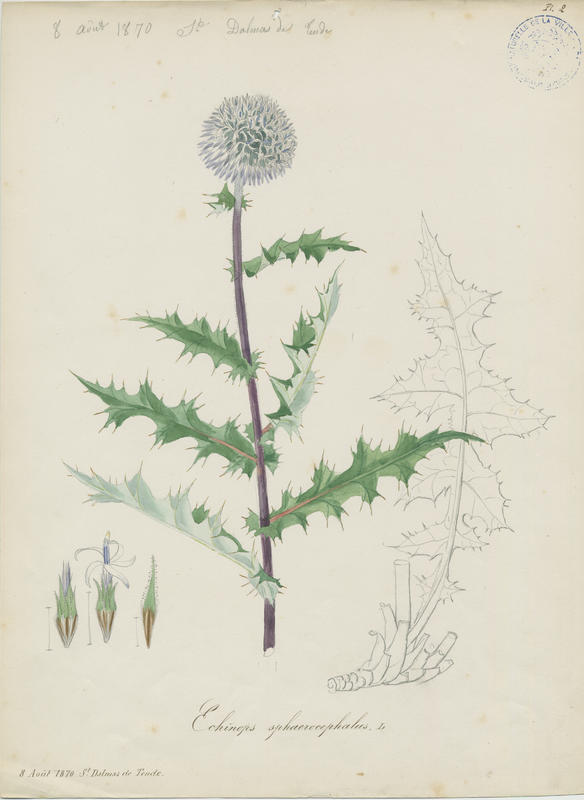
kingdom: Plantae
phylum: Tracheophyta
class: Magnoliopsida
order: Asterales
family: Asteraceae
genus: Echinops
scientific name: Echinops sphaerocephalus
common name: Glandular globe-thistle
